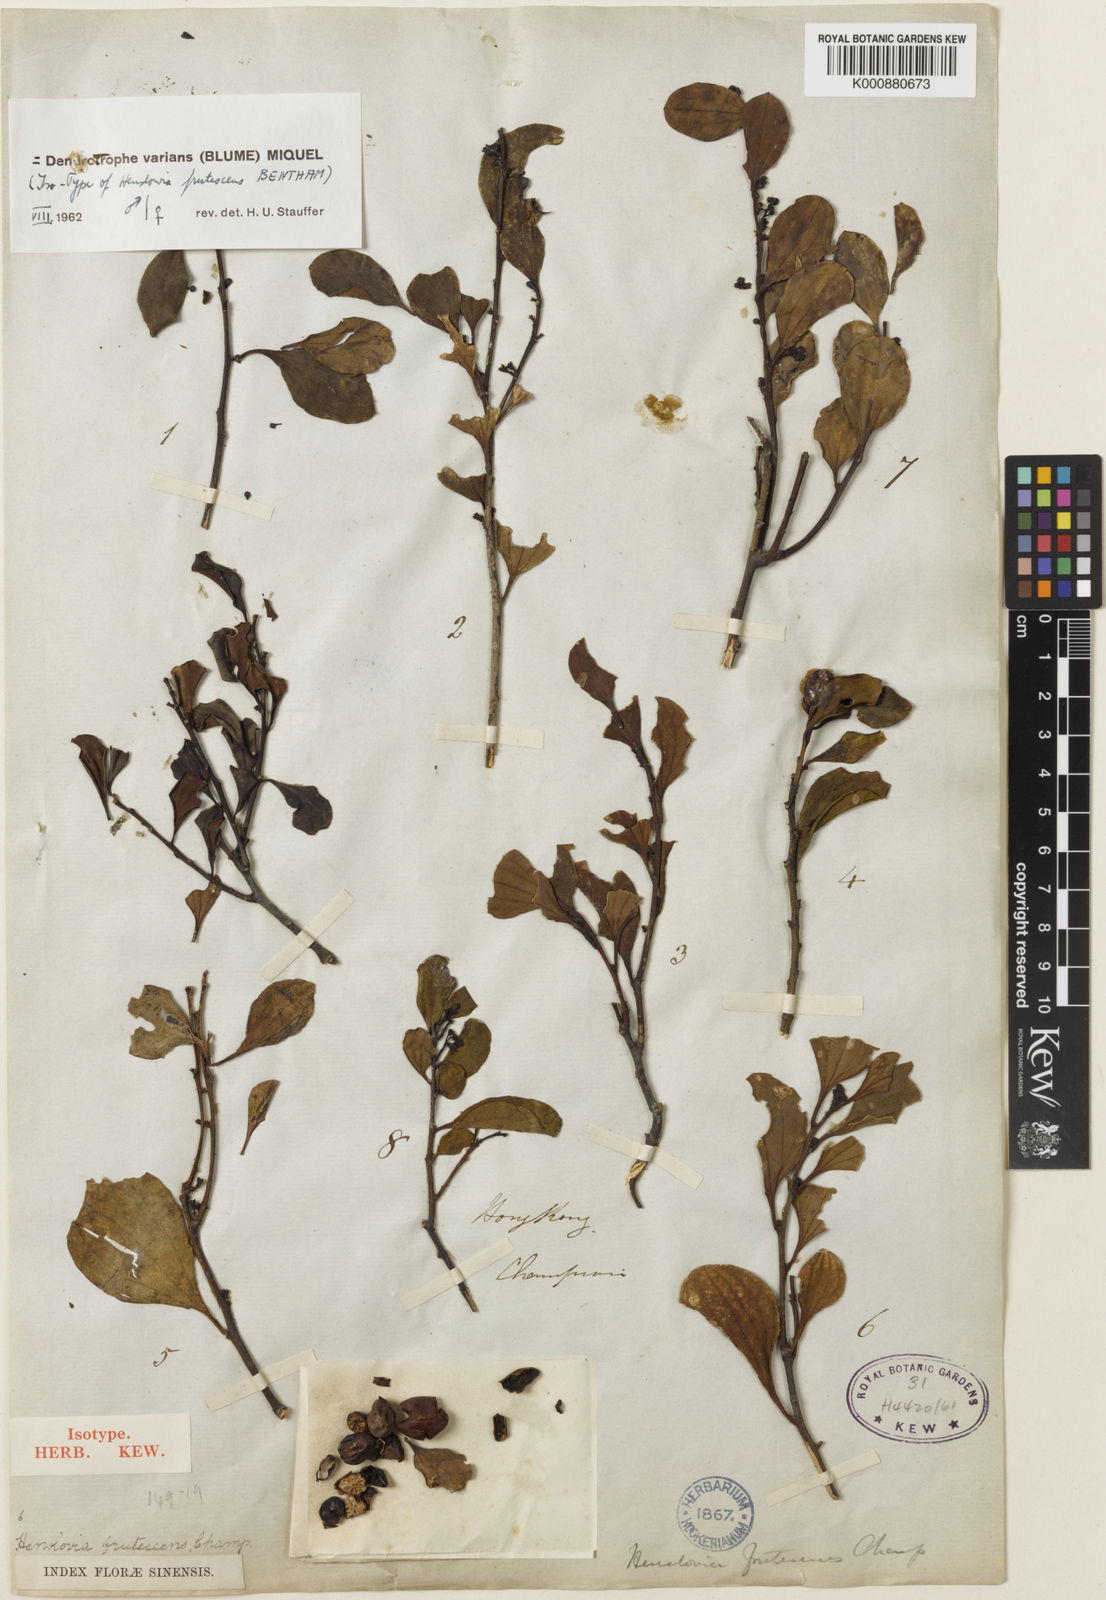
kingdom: Plantae
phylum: Tracheophyta
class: Magnoliopsida
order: Santalales
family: Amphorogynaceae
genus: Dendrotrophe
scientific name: Dendrotrophe varians
